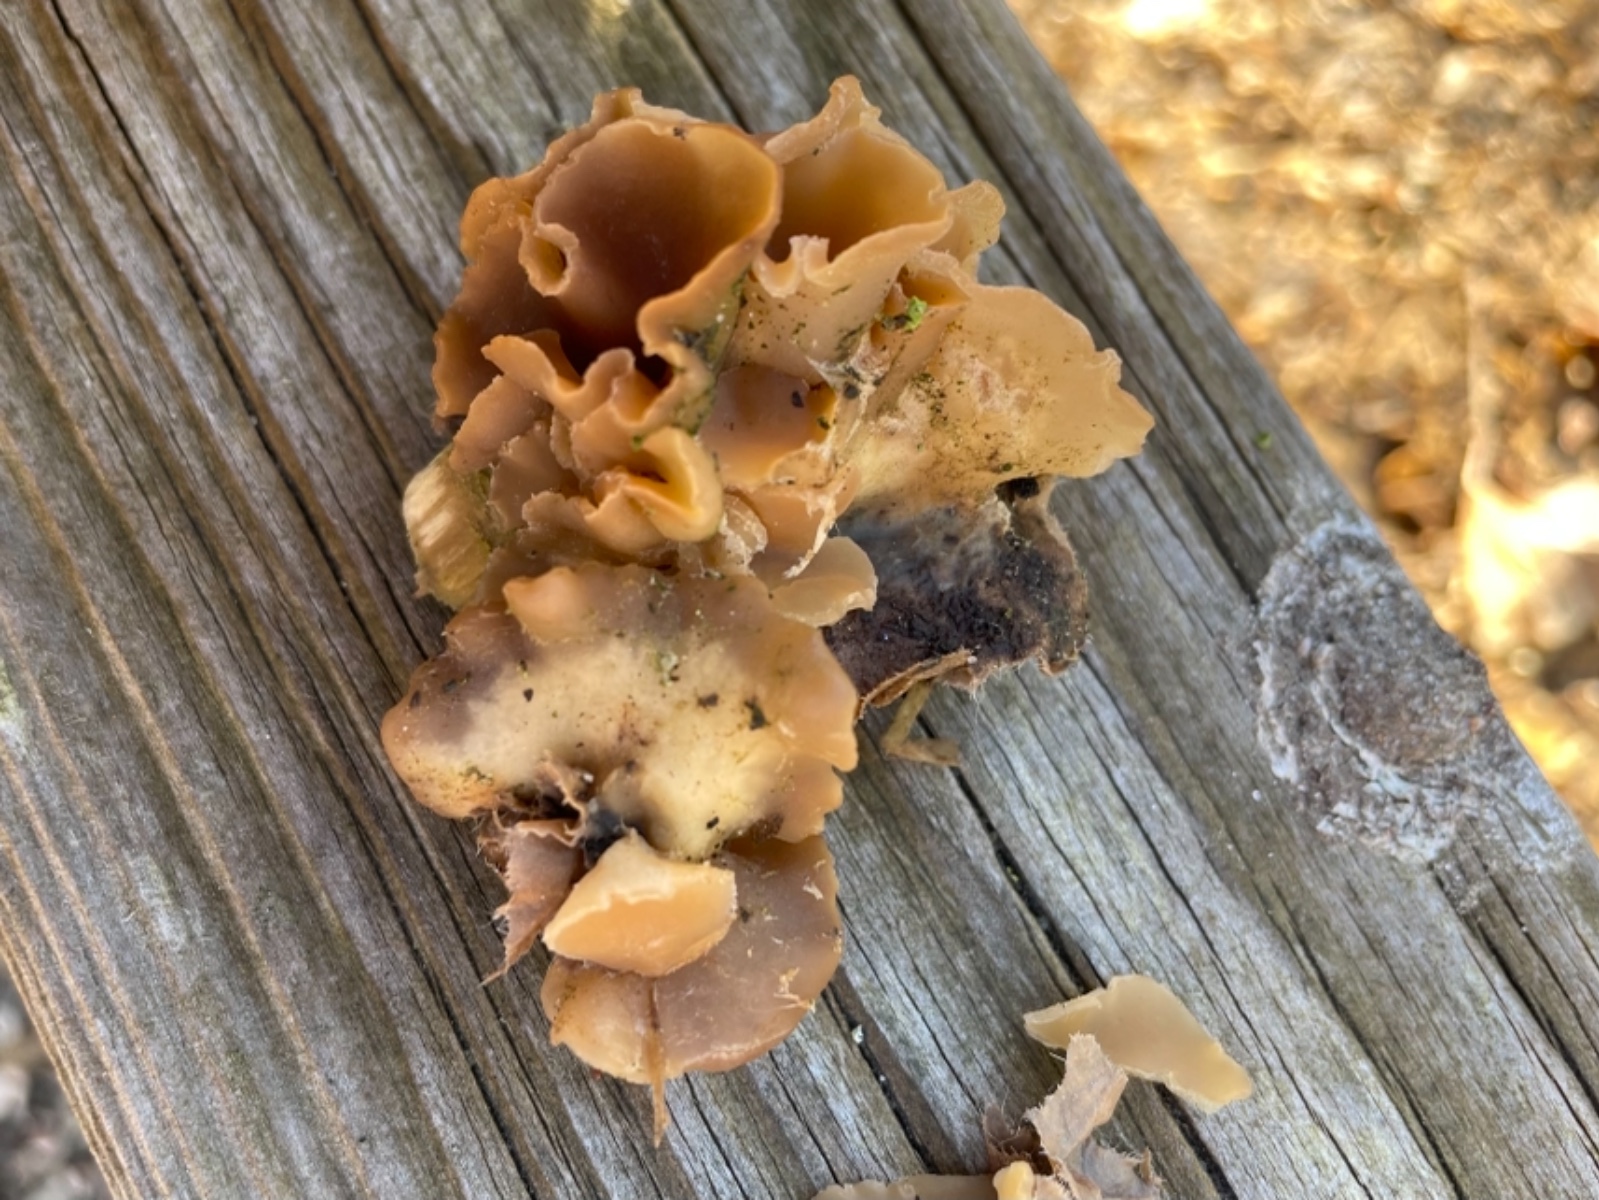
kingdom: Fungi
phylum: Ascomycota
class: Pezizomycetes
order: Pezizales
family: Pezizaceae
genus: Peziza
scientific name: Peziza
